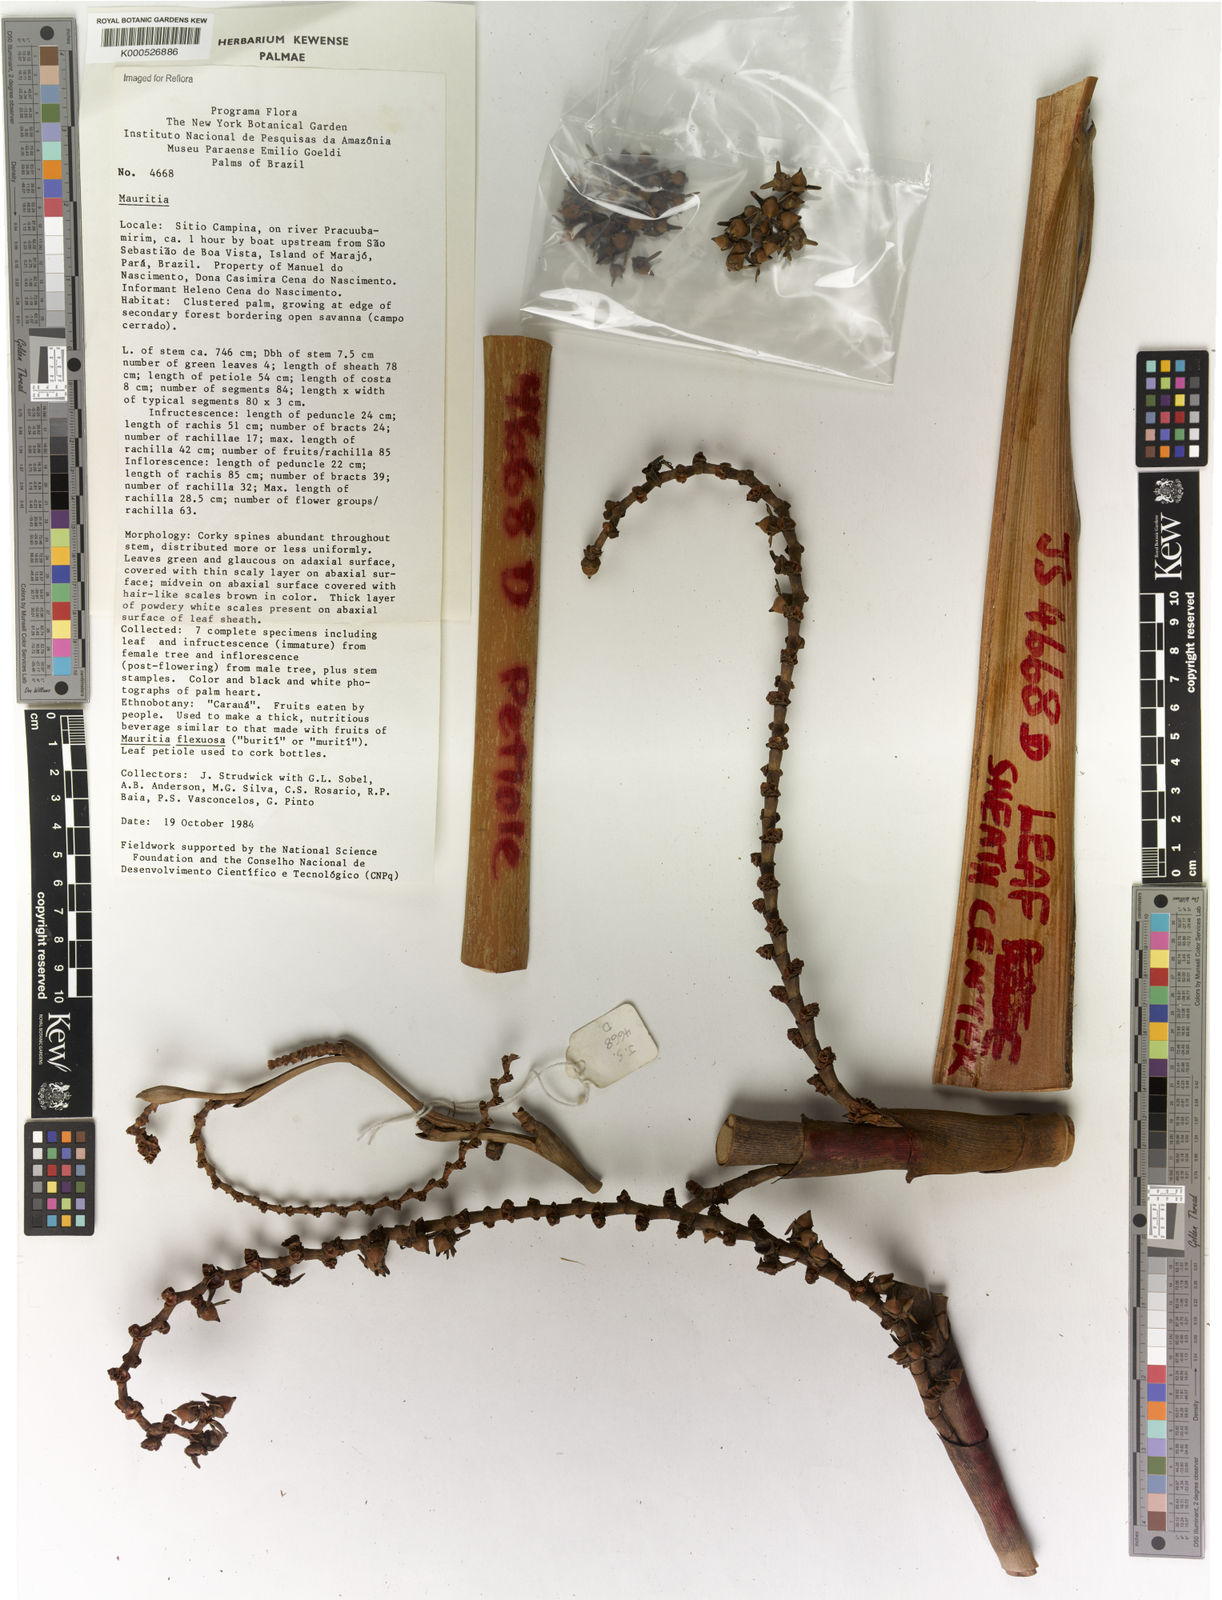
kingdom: Plantae
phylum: Tracheophyta
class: Liliopsida
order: Arecales
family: Arecaceae
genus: Mauritia
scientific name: Mauritia
